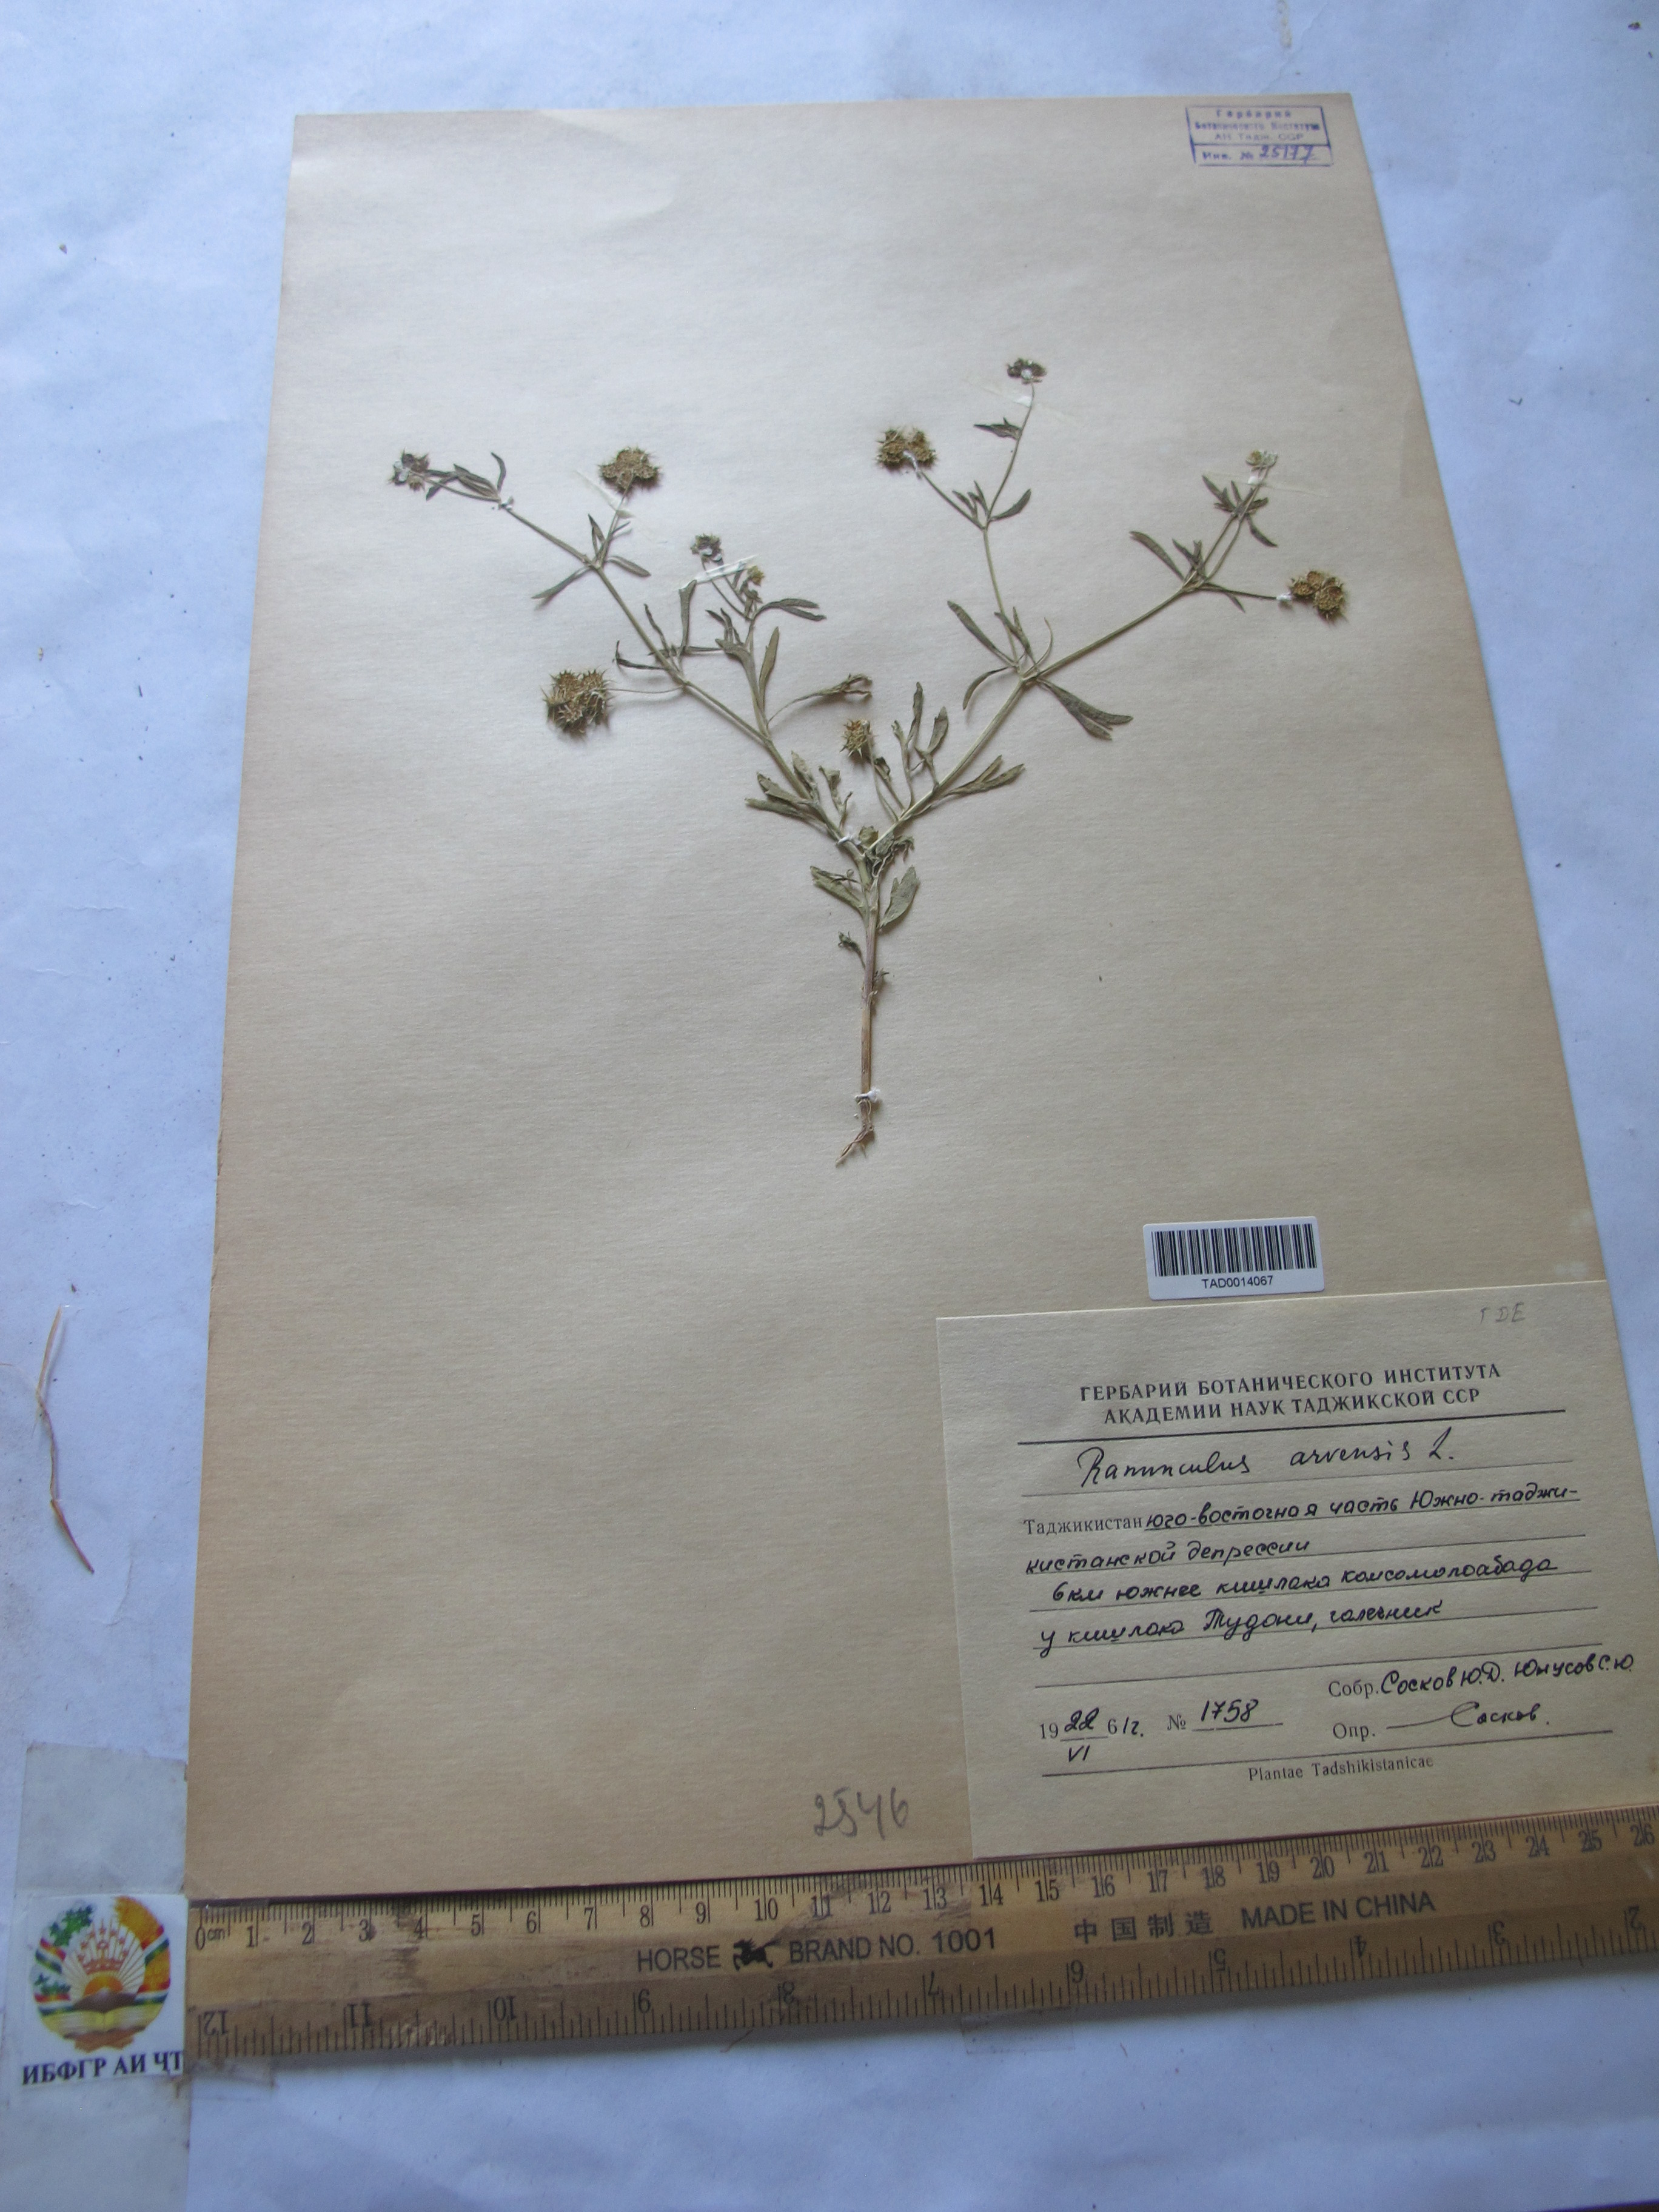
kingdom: Plantae
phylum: Tracheophyta
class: Magnoliopsida
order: Ranunculales
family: Ranunculaceae
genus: Ranunculus
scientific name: Ranunculus arvensis
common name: Corn buttercup
